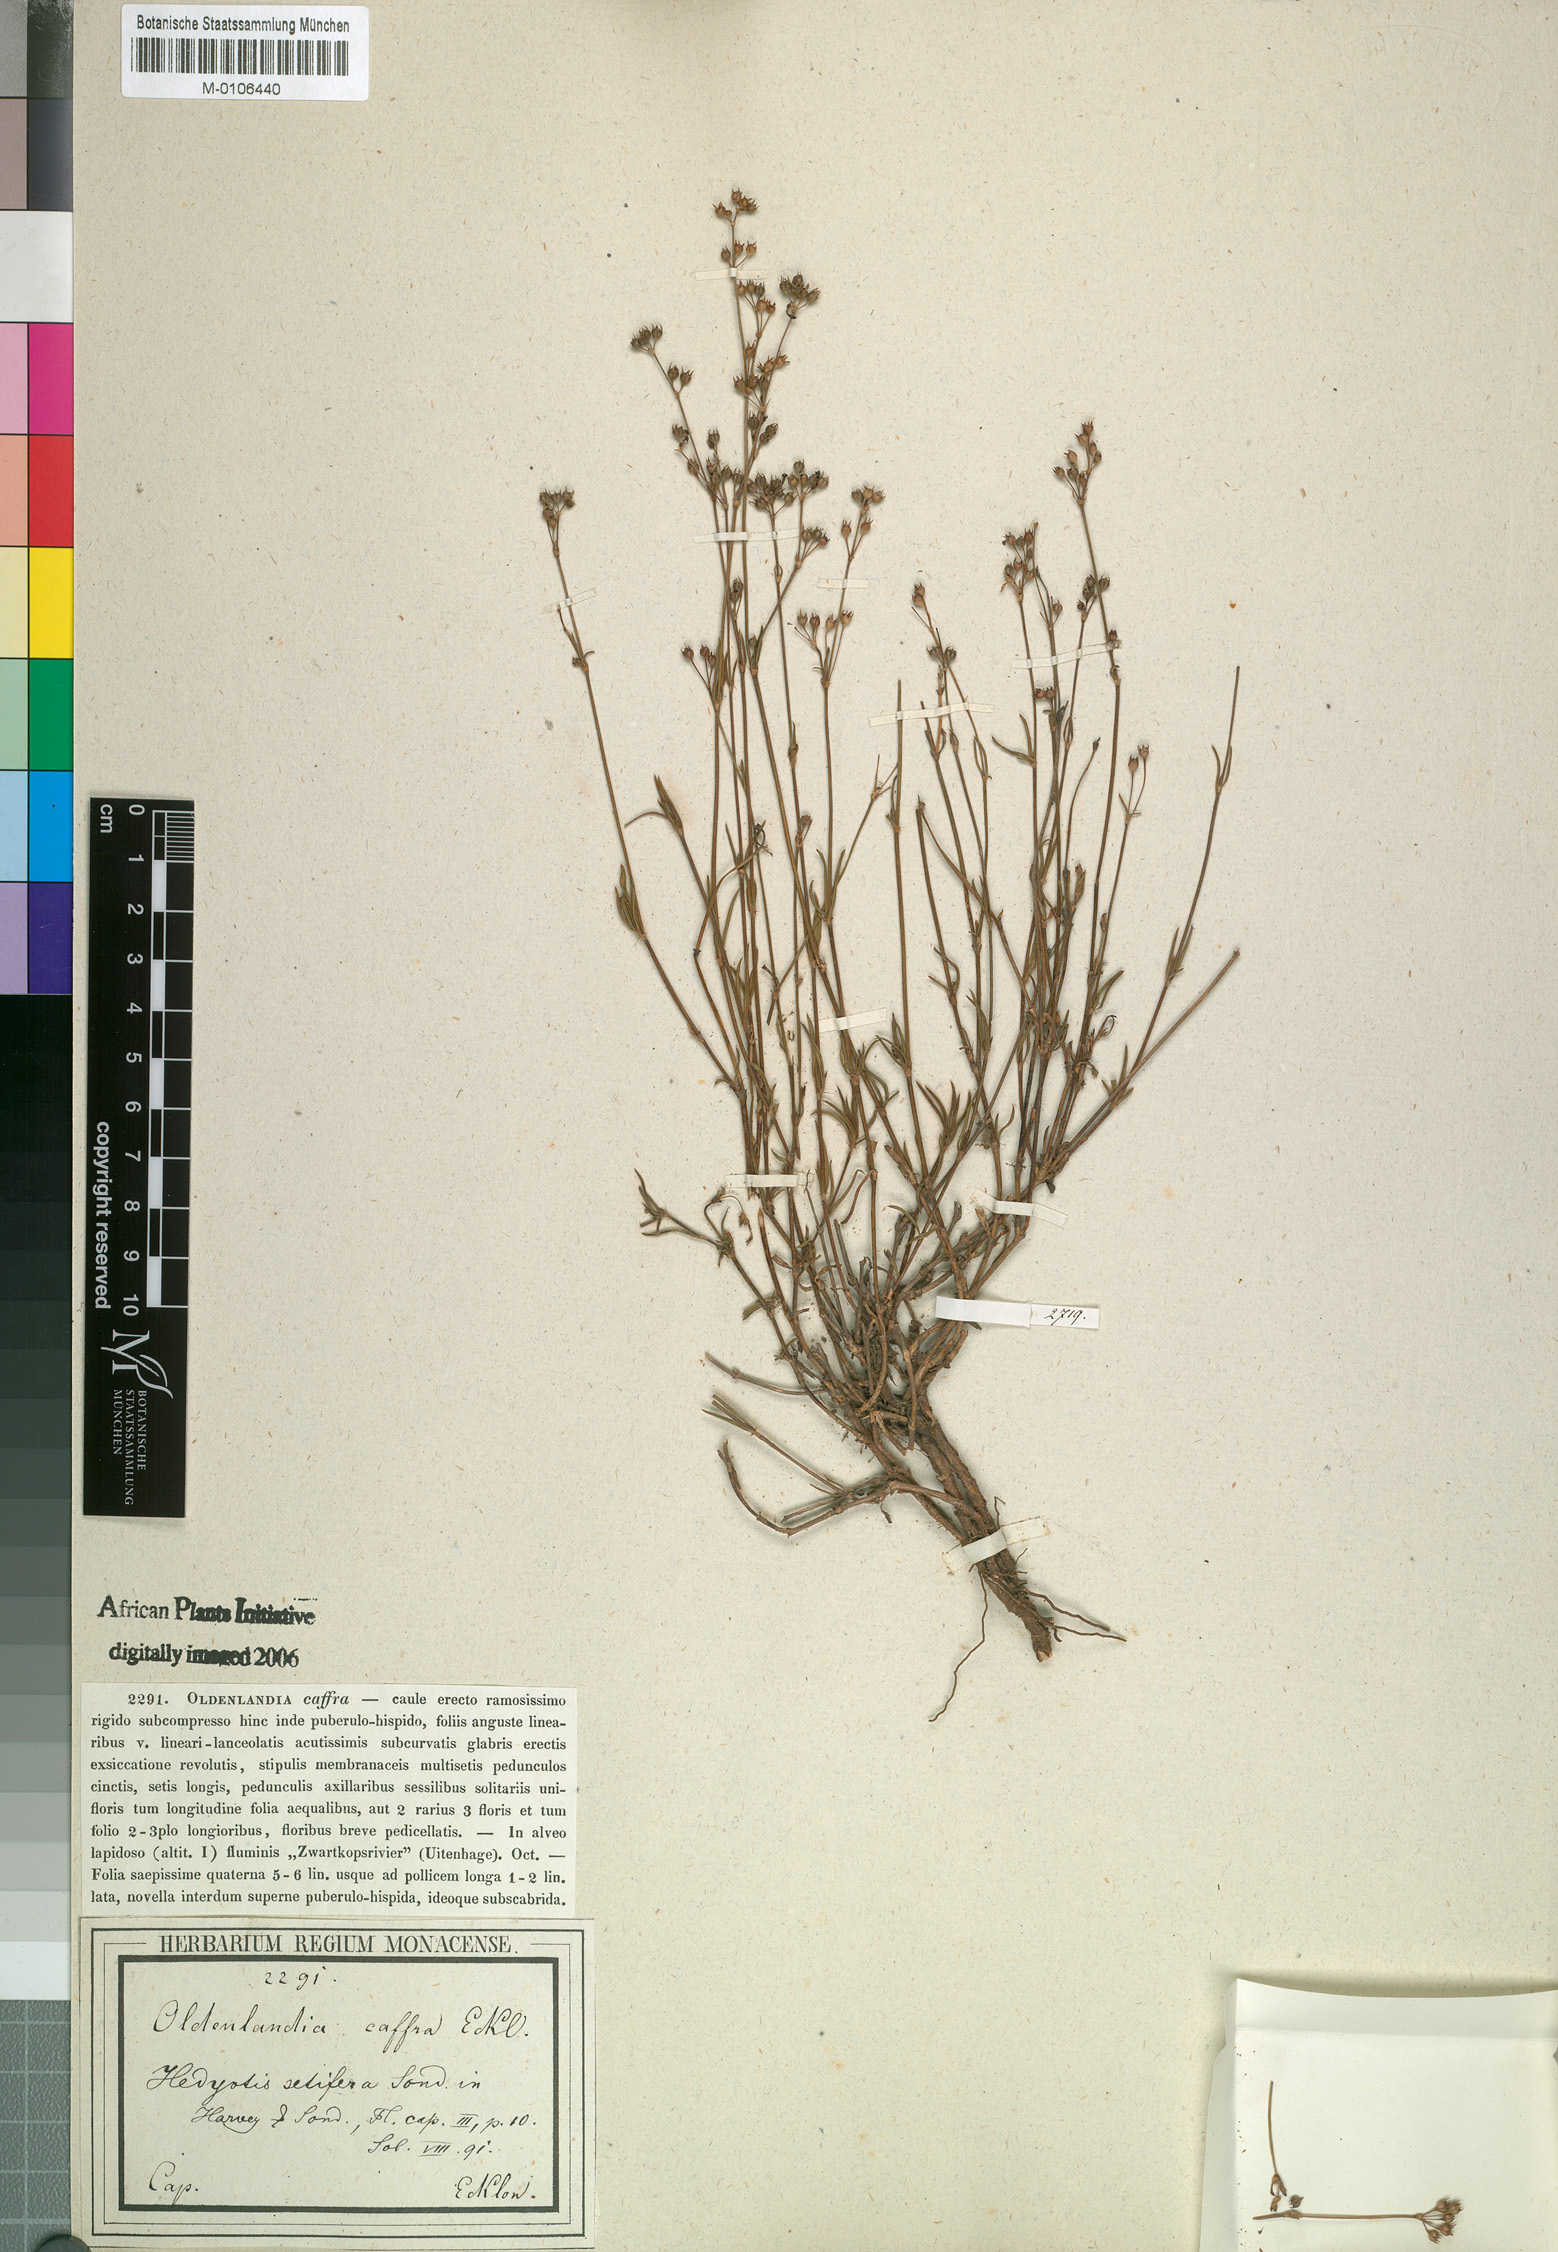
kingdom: Plantae
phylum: Tracheophyta
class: Magnoliopsida
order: Gentianales
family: Rubiaceae
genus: Cordylostigma
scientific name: Cordylostigma virgatum
